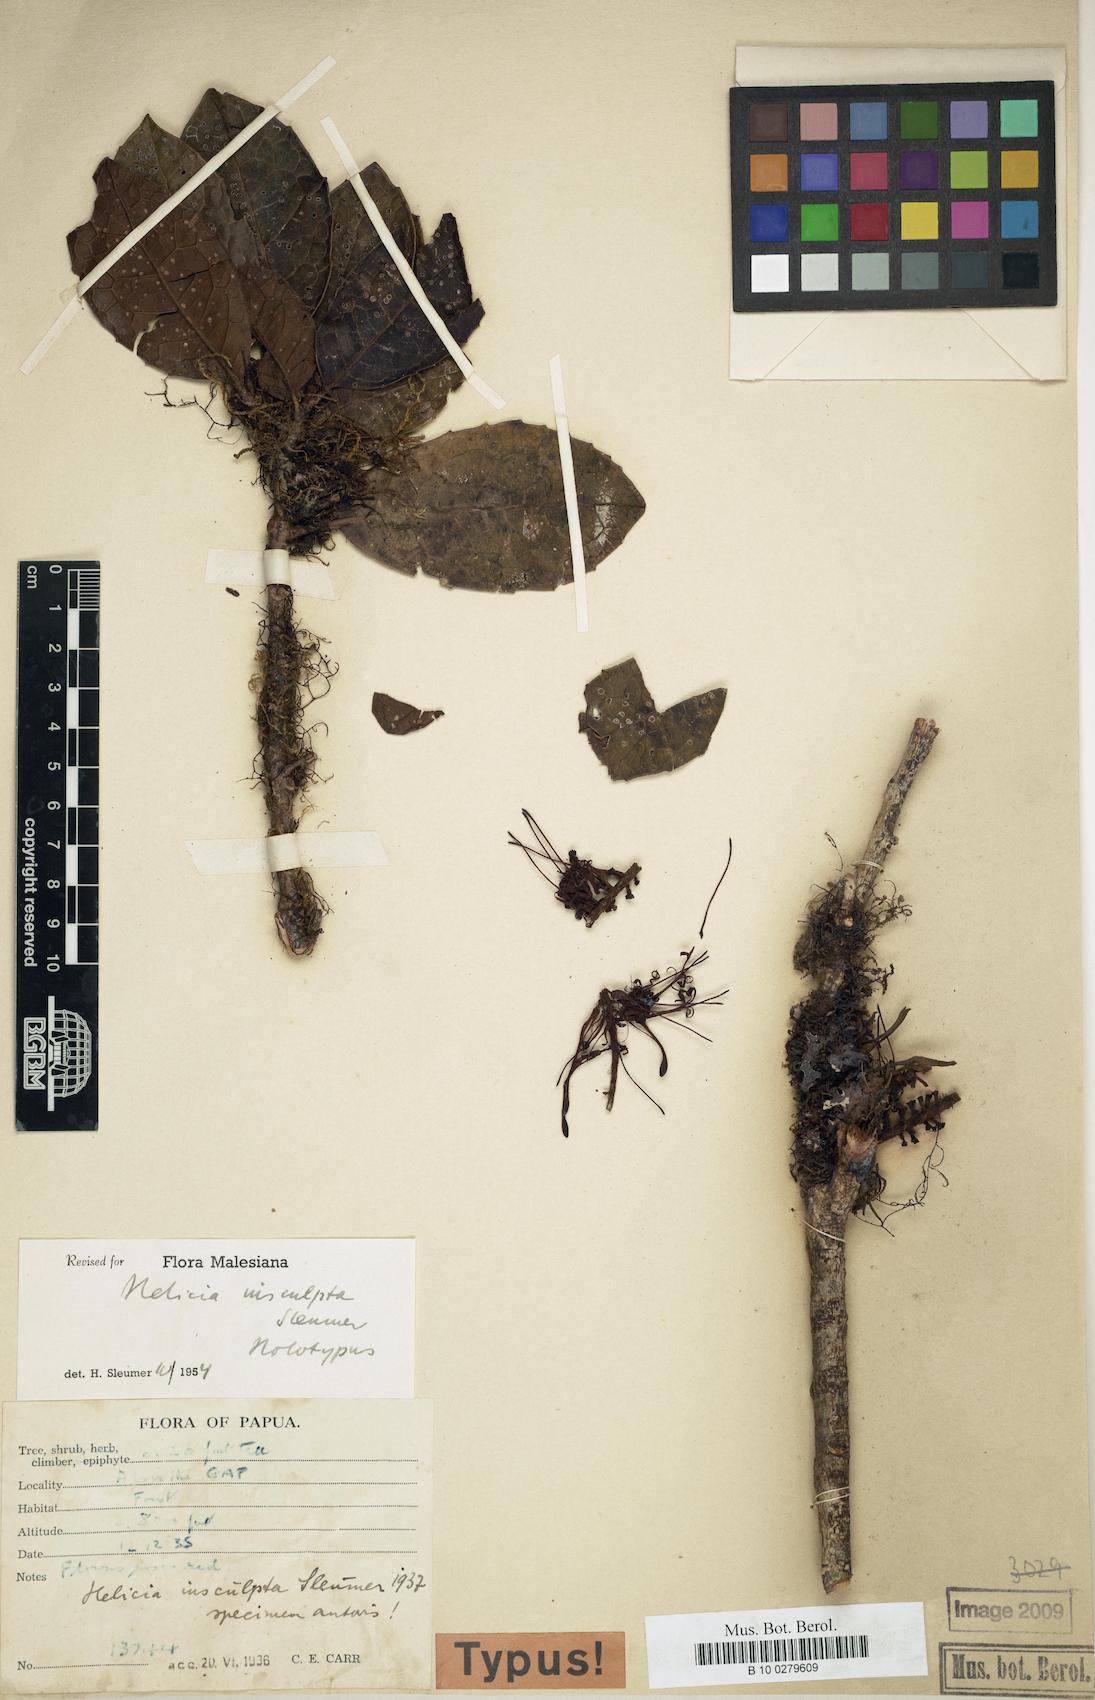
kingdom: Plantae
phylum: Tracheophyta
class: Magnoliopsida
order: Proteales
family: Proteaceae
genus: Helicia
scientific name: Helicia insculpta
